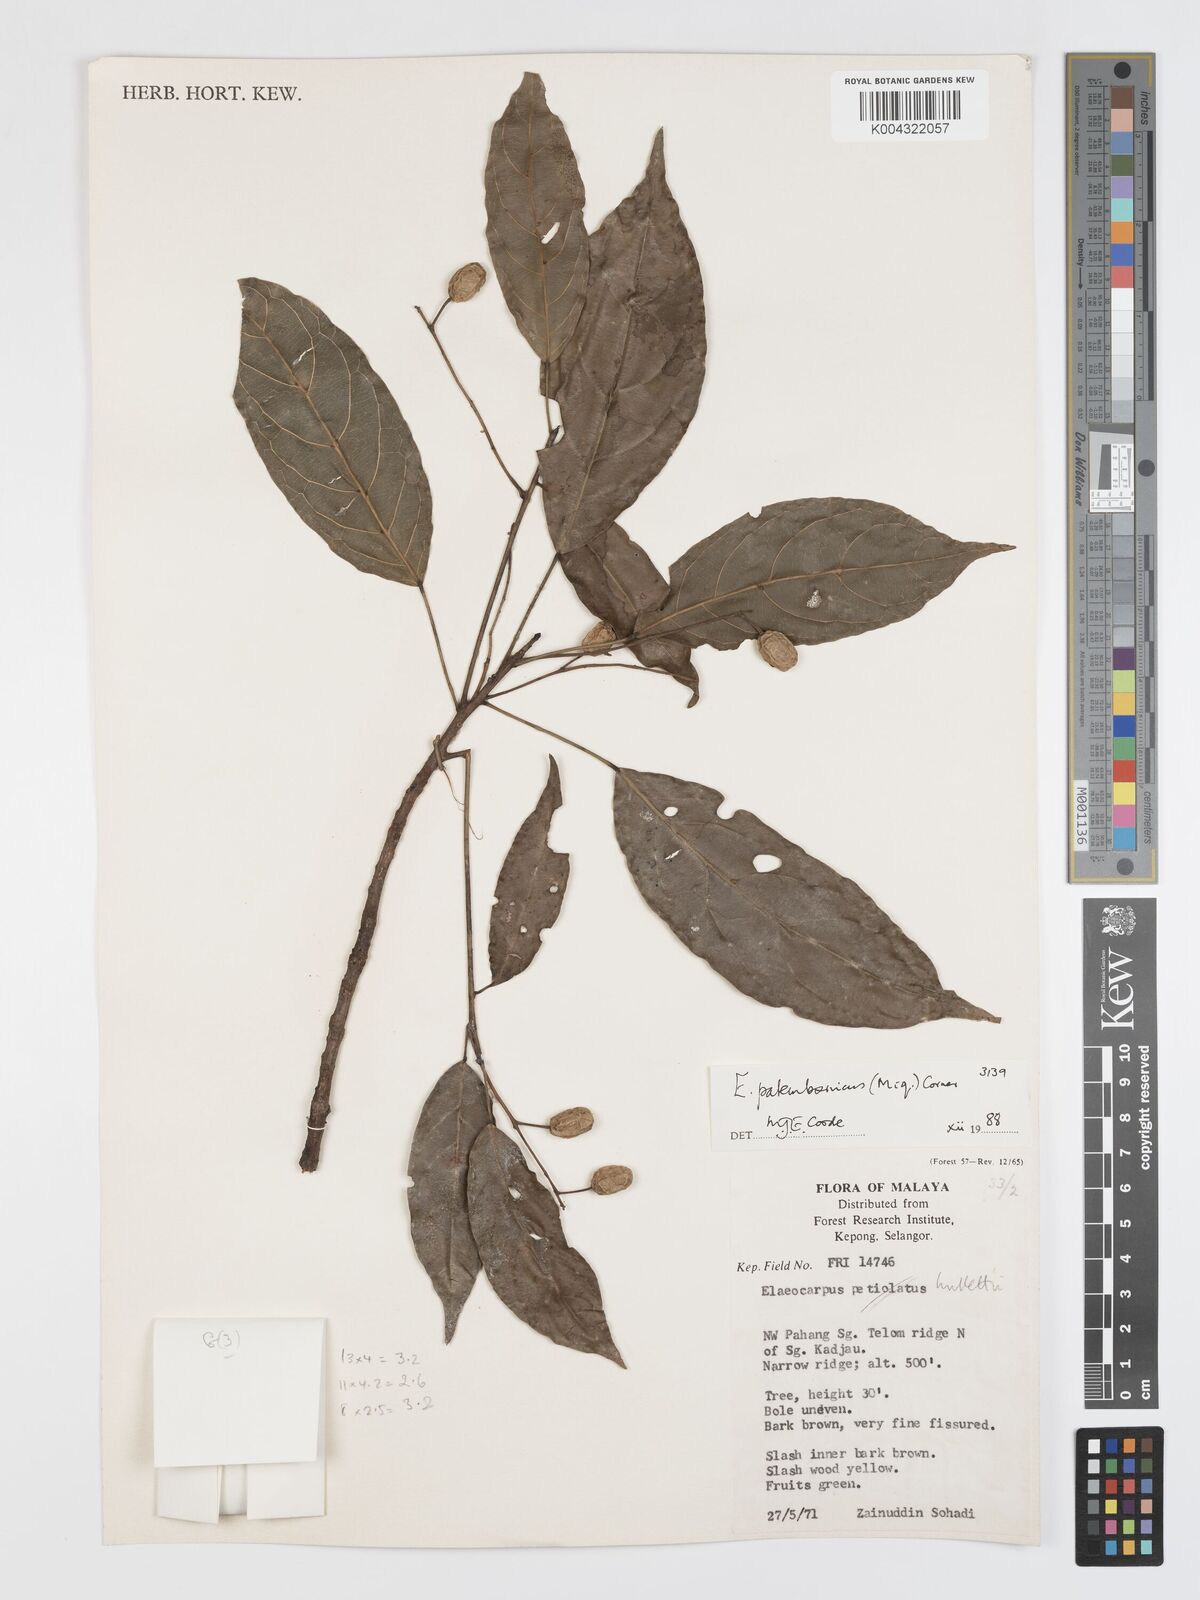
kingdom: Plantae
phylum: Tracheophyta
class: Magnoliopsida
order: Oxalidales
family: Elaeocarpaceae
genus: Elaeocarpus
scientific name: Elaeocarpus palembanicus
